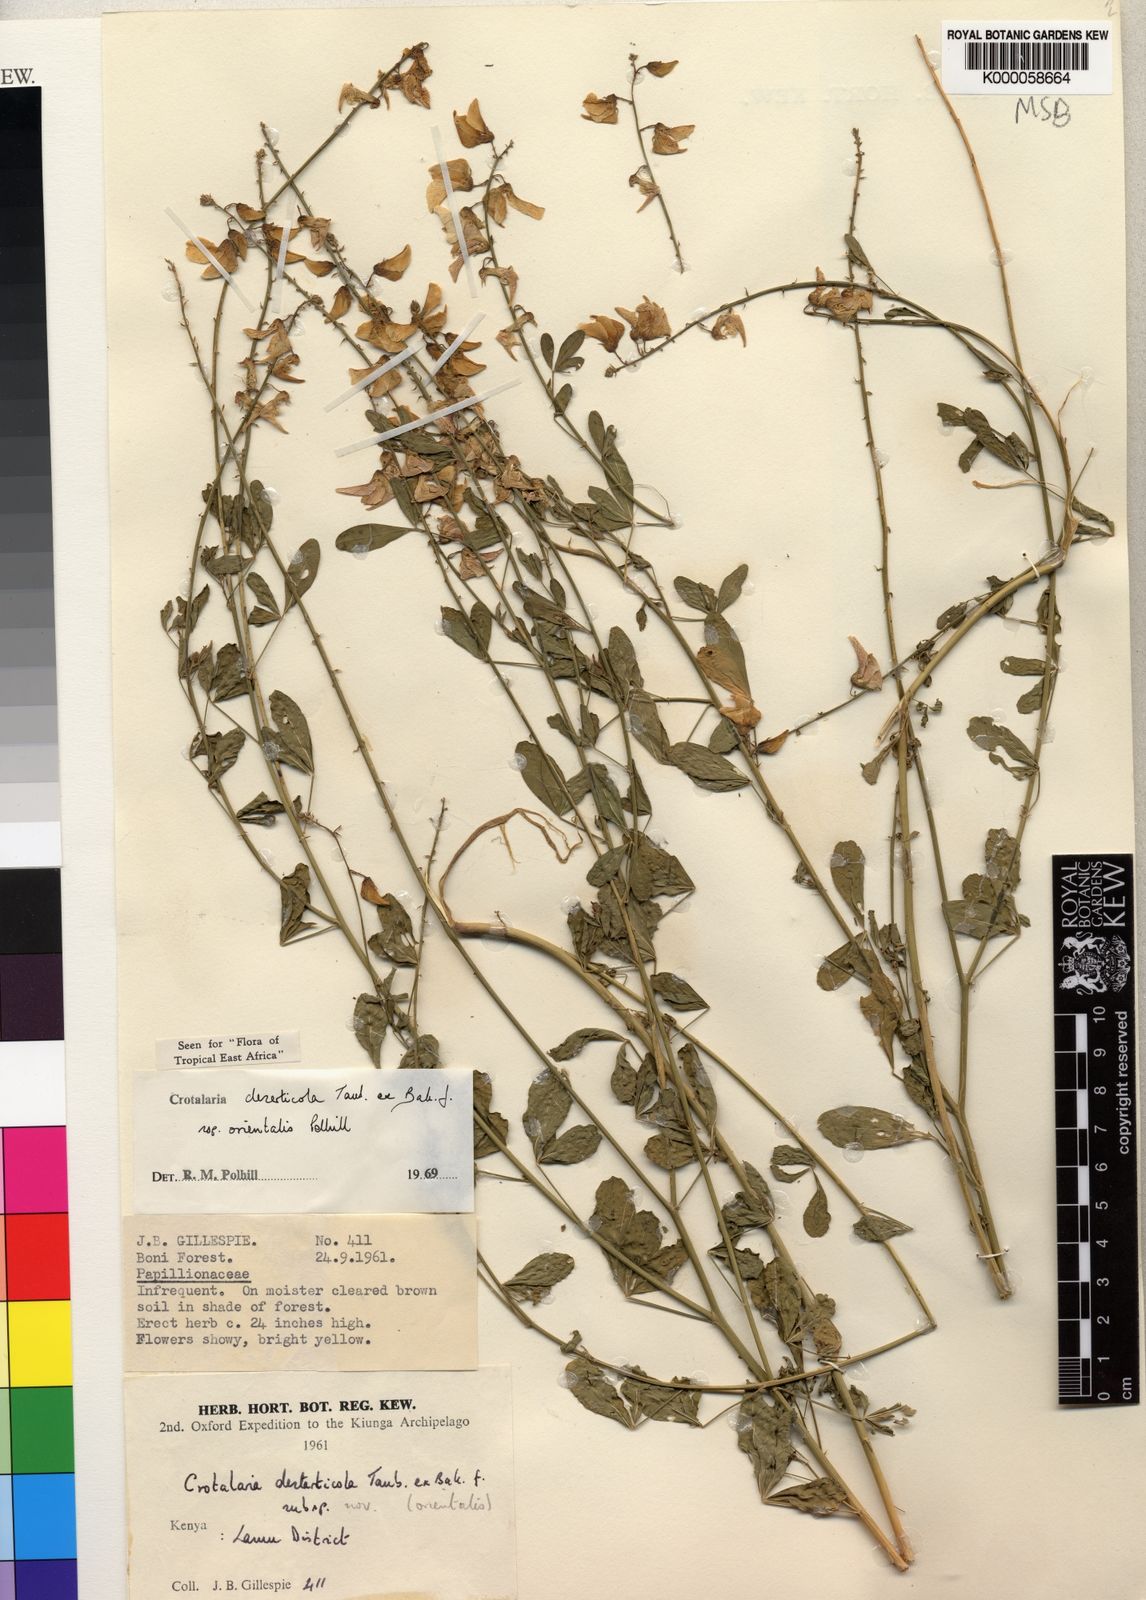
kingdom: Plantae
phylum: Tracheophyta
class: Magnoliopsida
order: Fabales
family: Fabaceae
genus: Crotalaria
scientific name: Crotalaria deserticola
